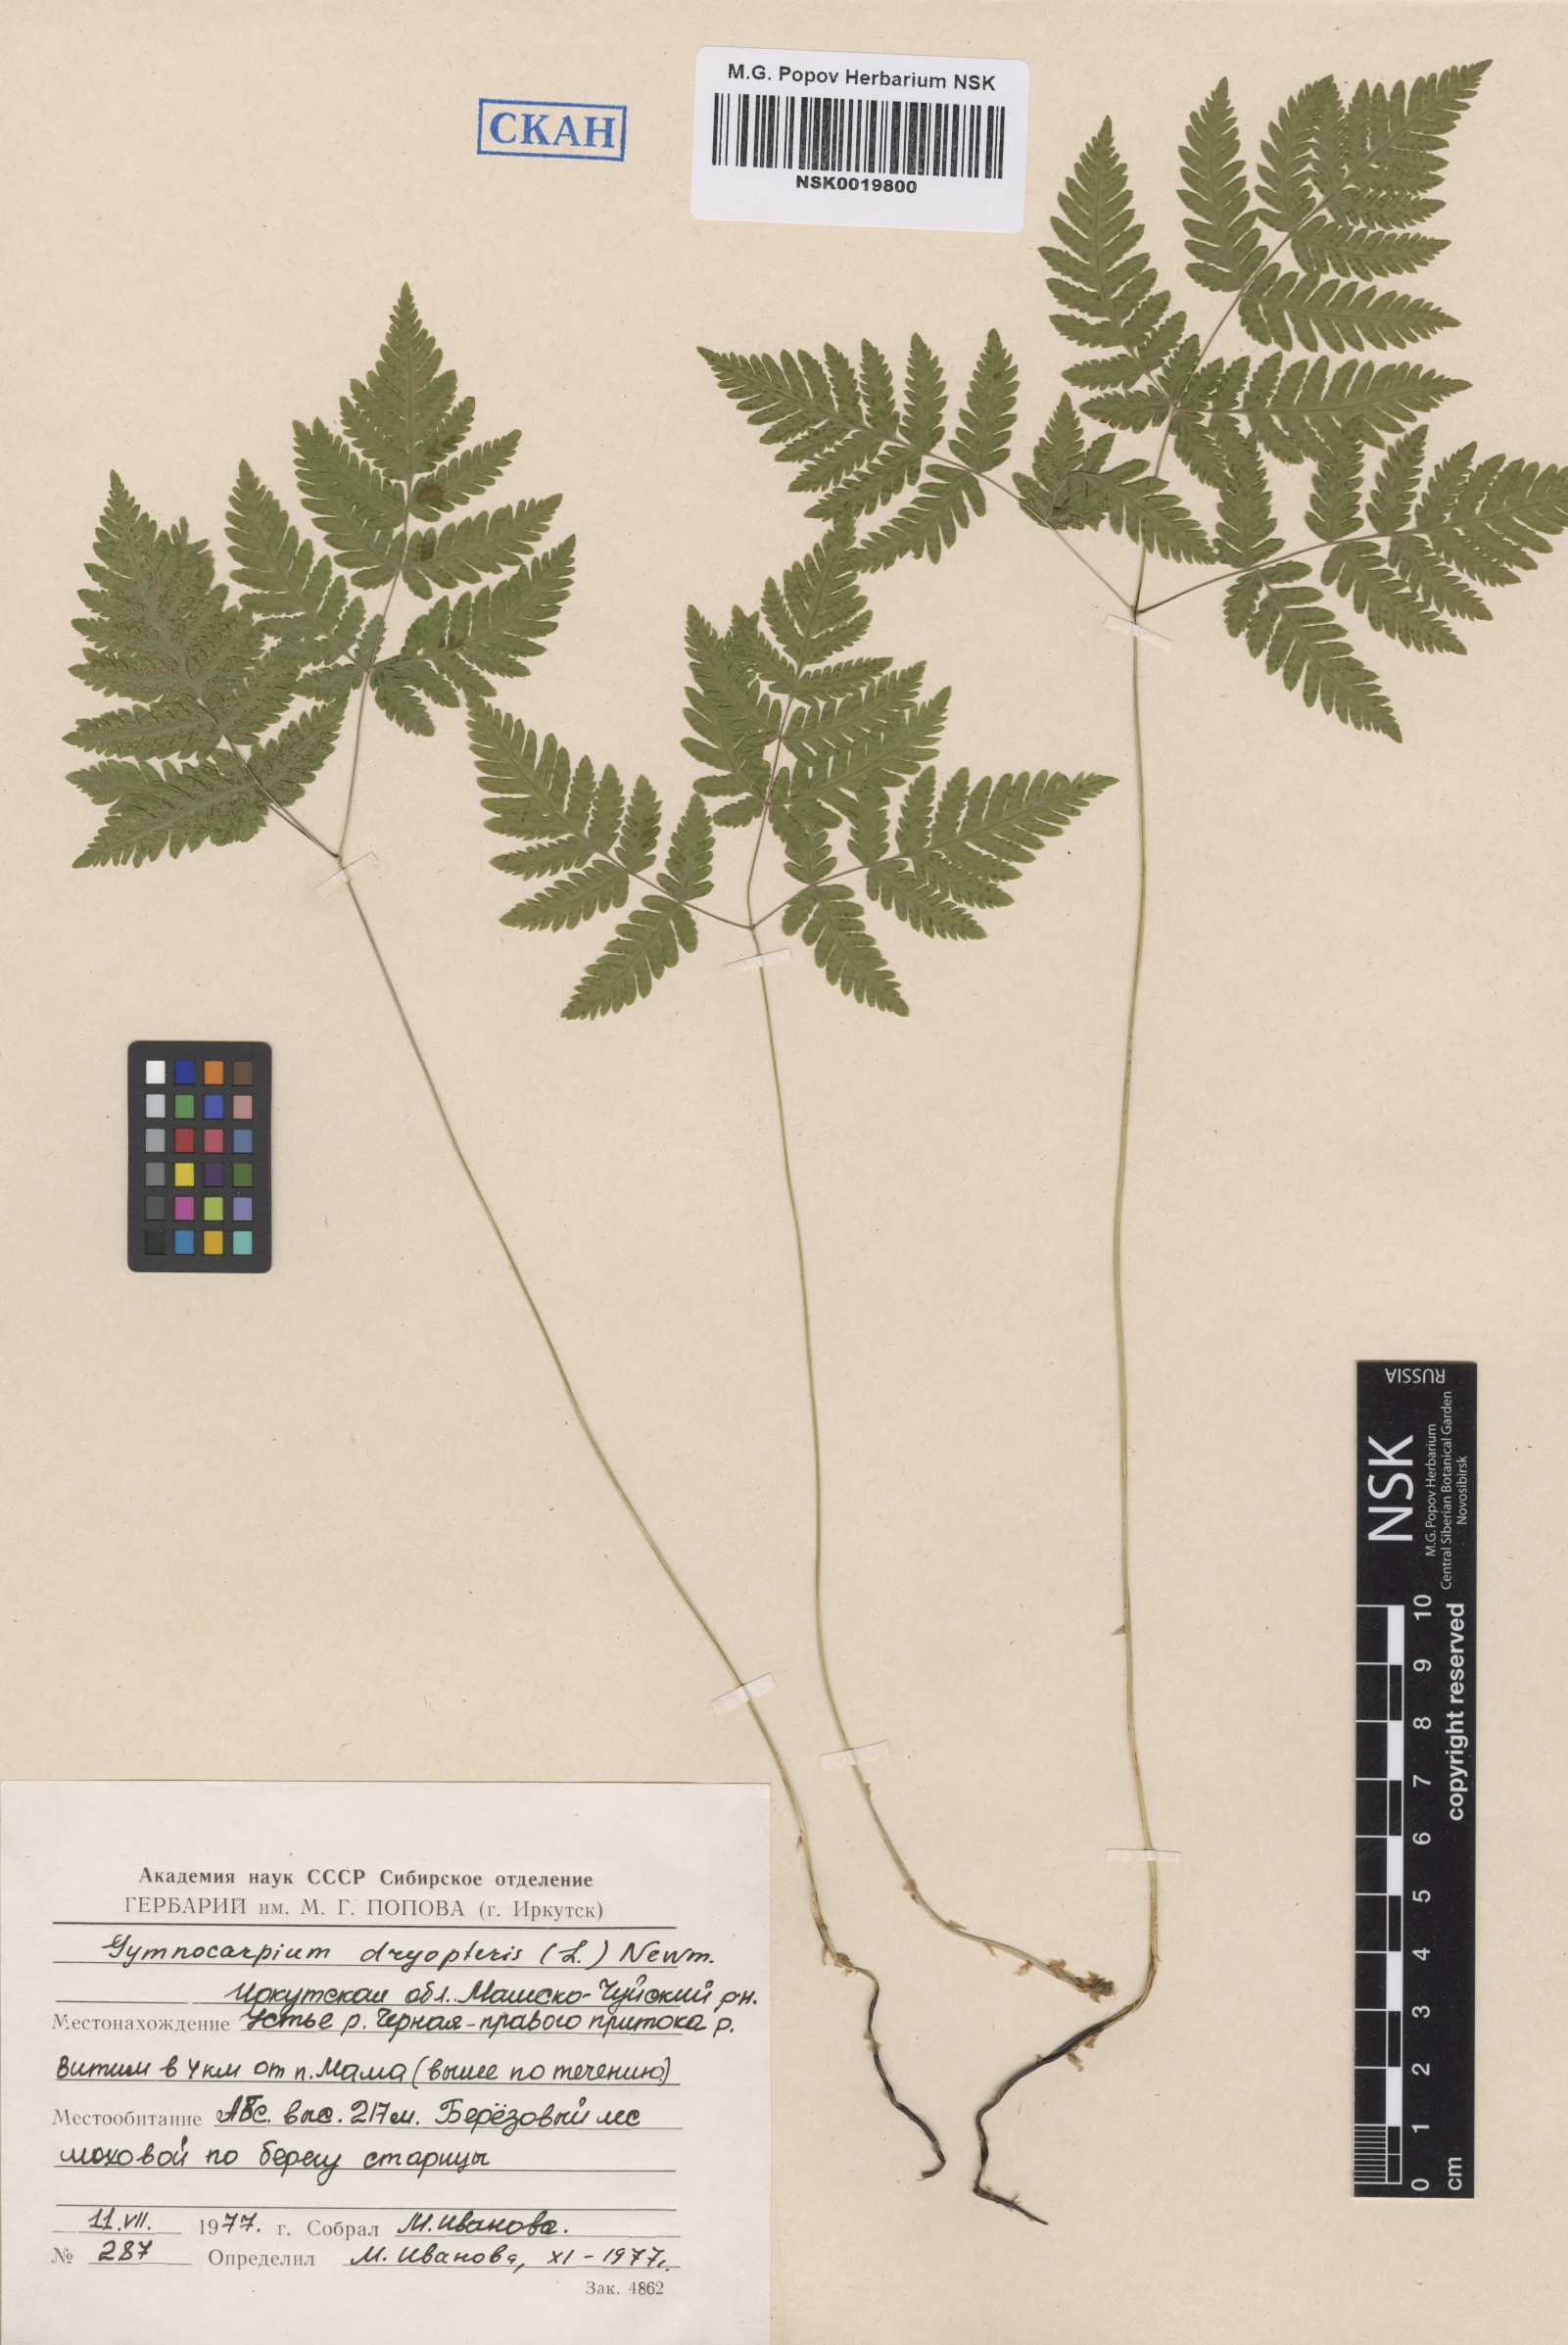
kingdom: Plantae
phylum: Tracheophyta
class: Polypodiopsida
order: Polypodiales
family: Cystopteridaceae
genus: Gymnocarpium
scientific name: Gymnocarpium dryopteris
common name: Oak fern
